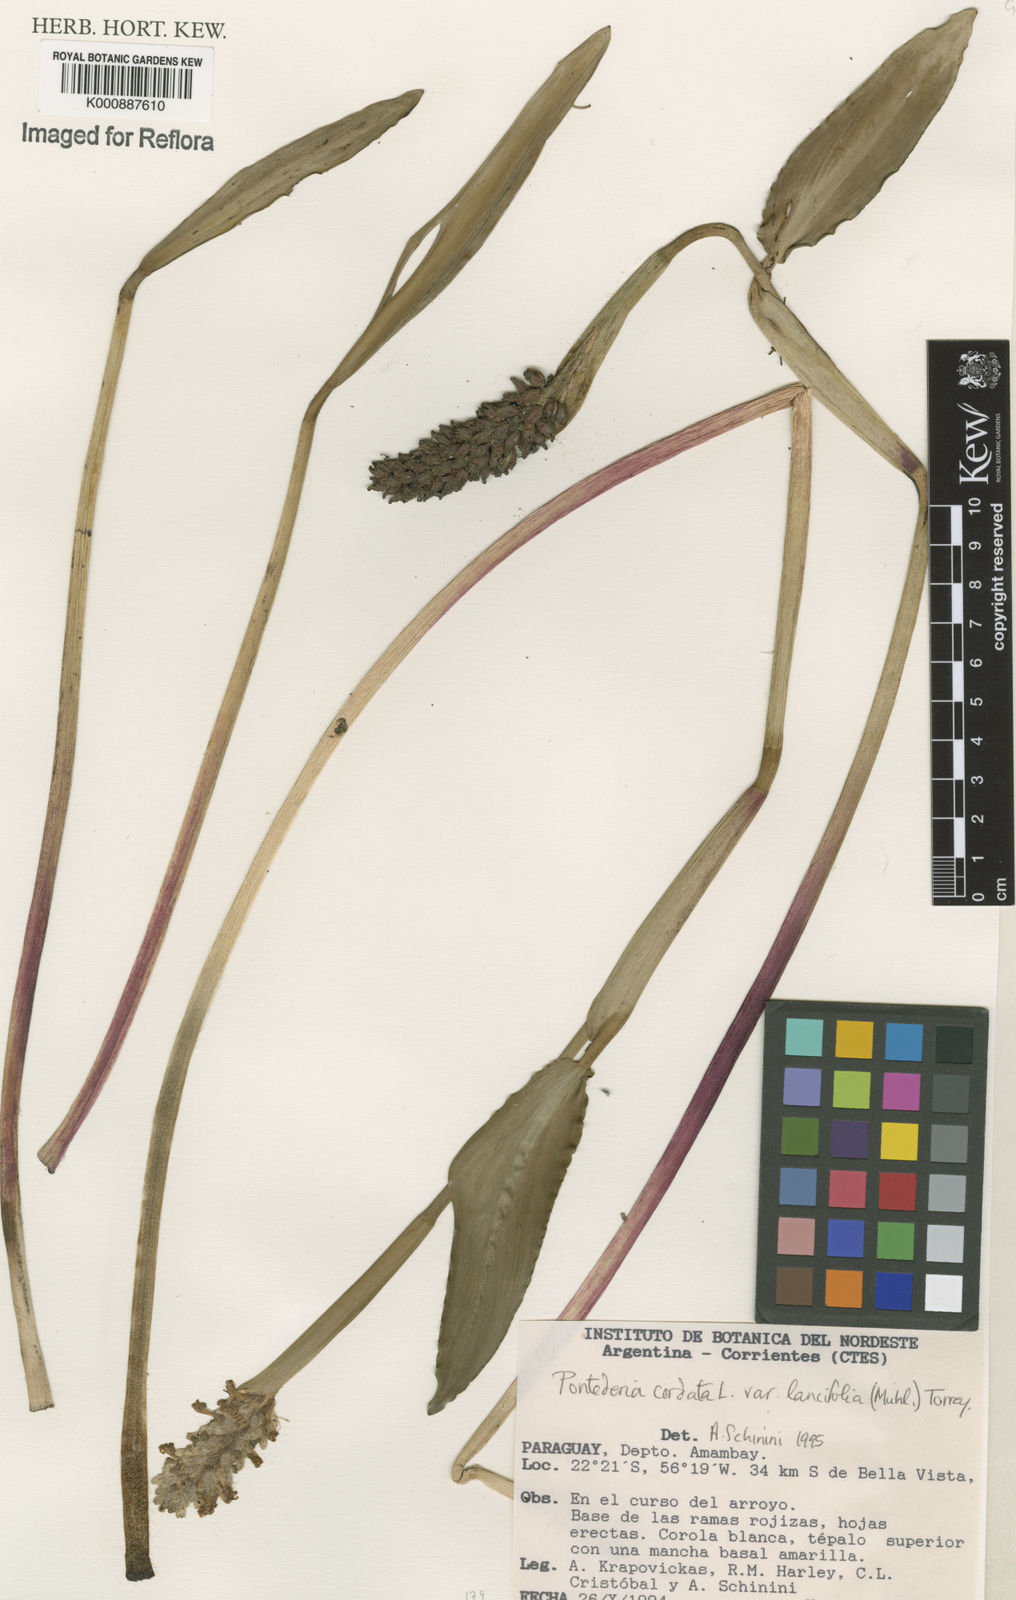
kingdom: Plantae
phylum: Tracheophyta
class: Liliopsida
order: Commelinales
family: Pontederiaceae
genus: Pontederia
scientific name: Pontederia cordata
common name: Pickerelweed
